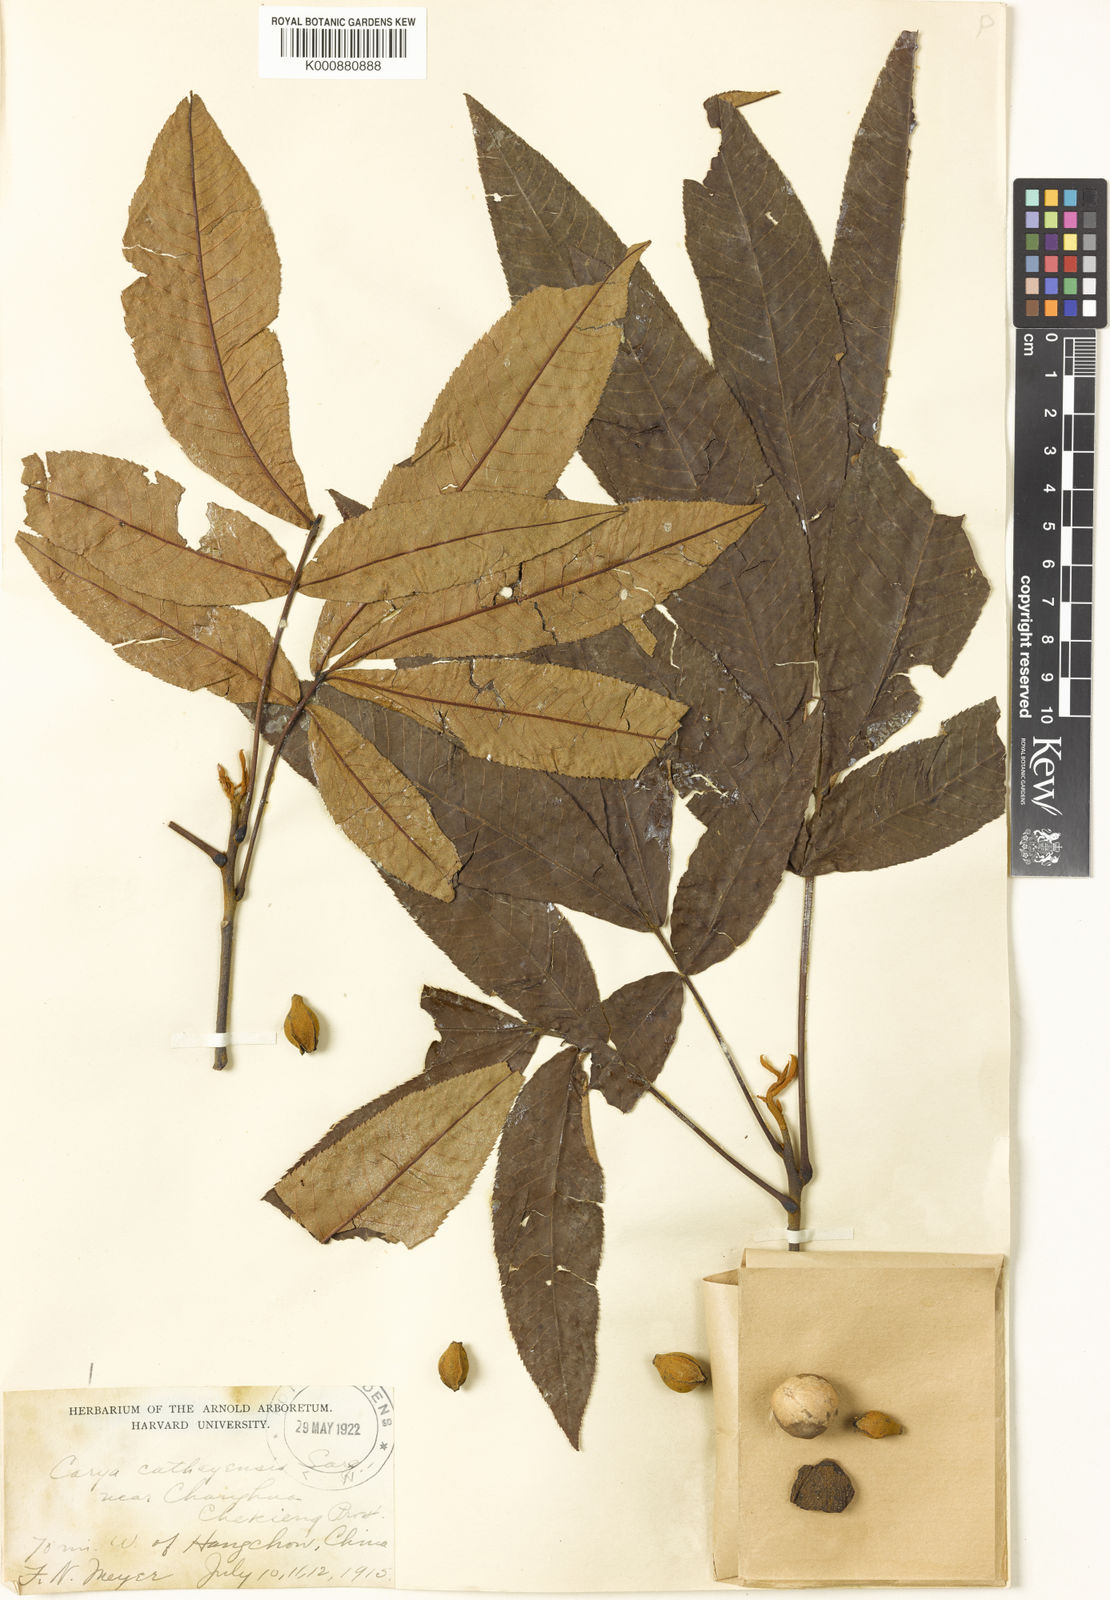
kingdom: Plantae
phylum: Tracheophyta
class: Magnoliopsida
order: Fagales
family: Juglandaceae
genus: Carya
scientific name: Carya cathayensis
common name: Cathay hickory
